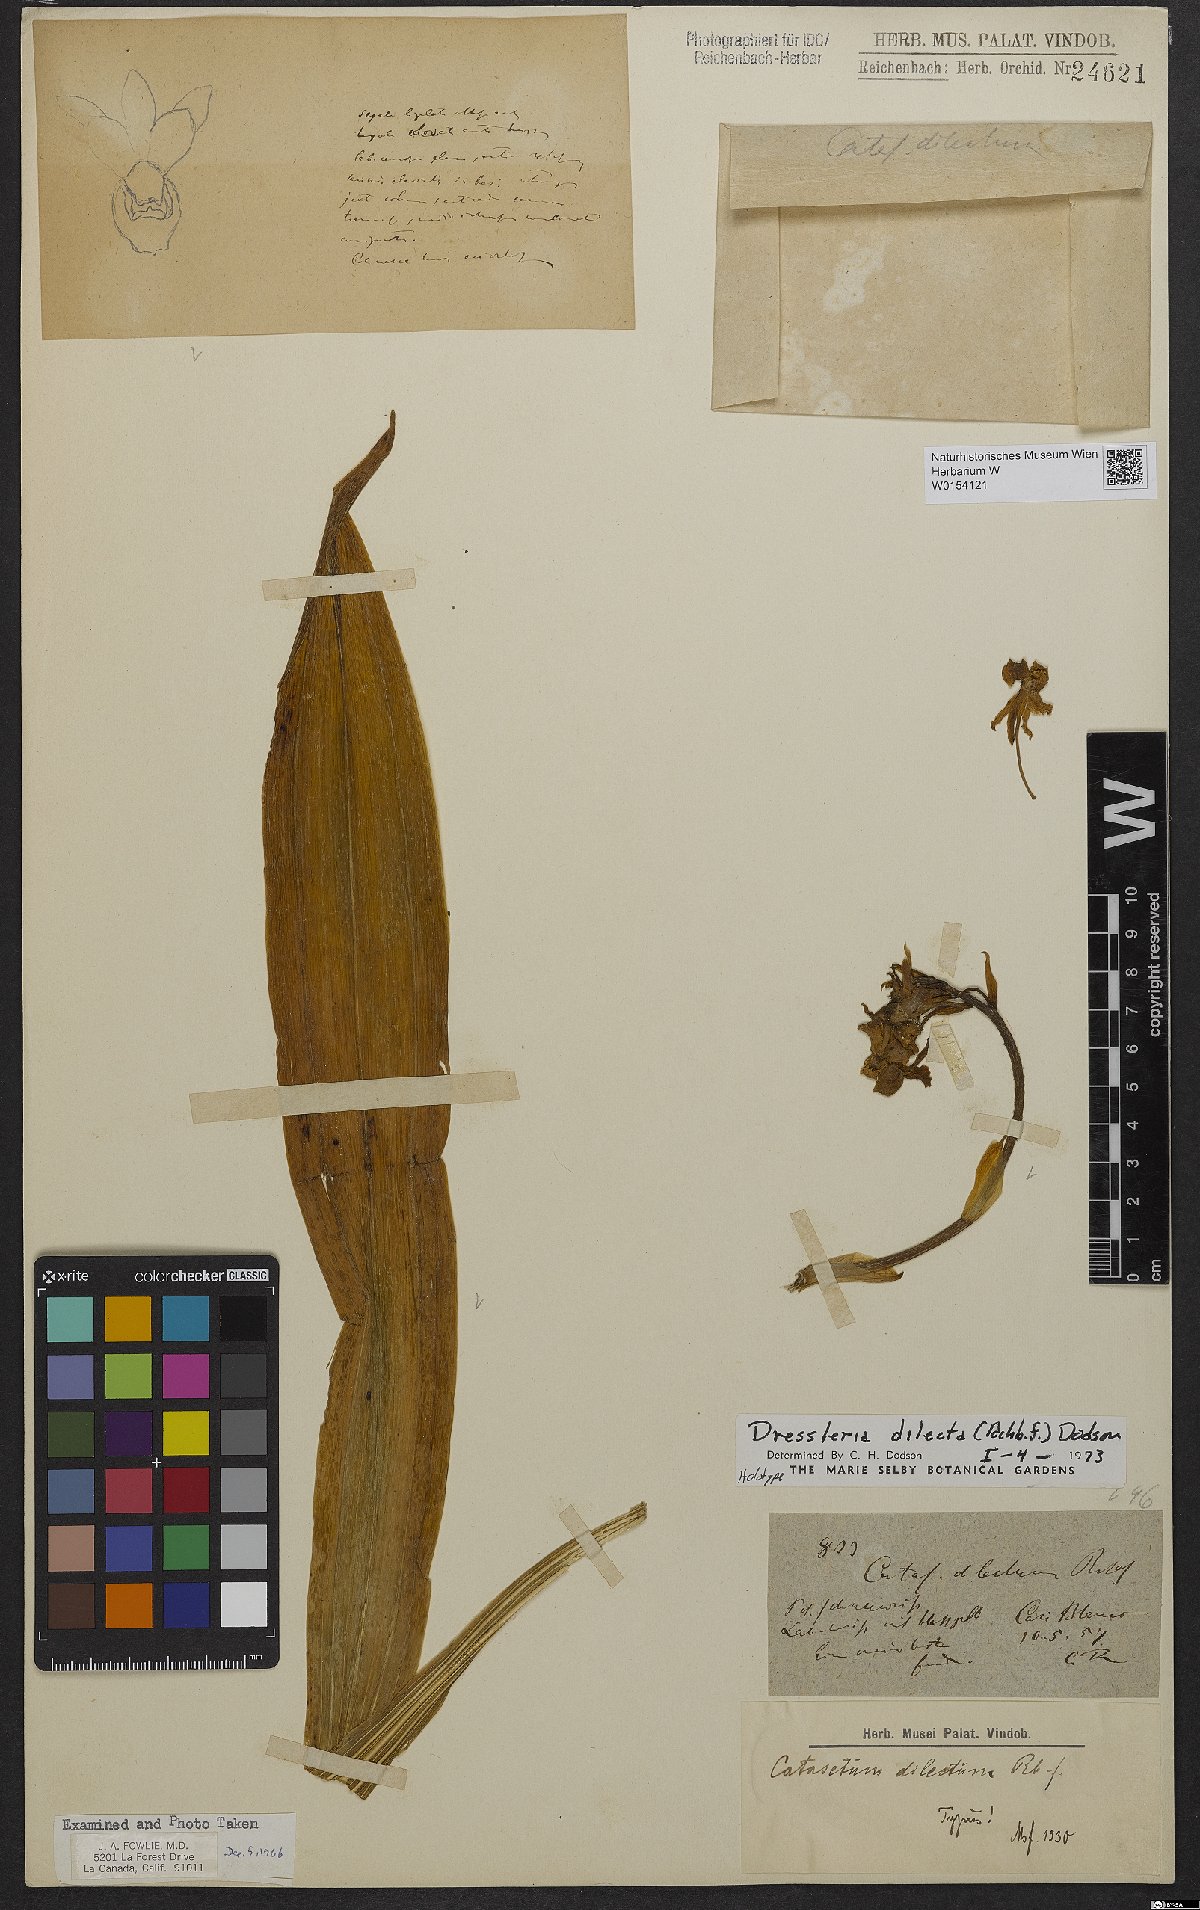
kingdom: Plantae
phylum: Tracheophyta
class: Liliopsida
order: Asparagales
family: Orchidaceae
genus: Dressleria
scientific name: Dressleria dilecta
